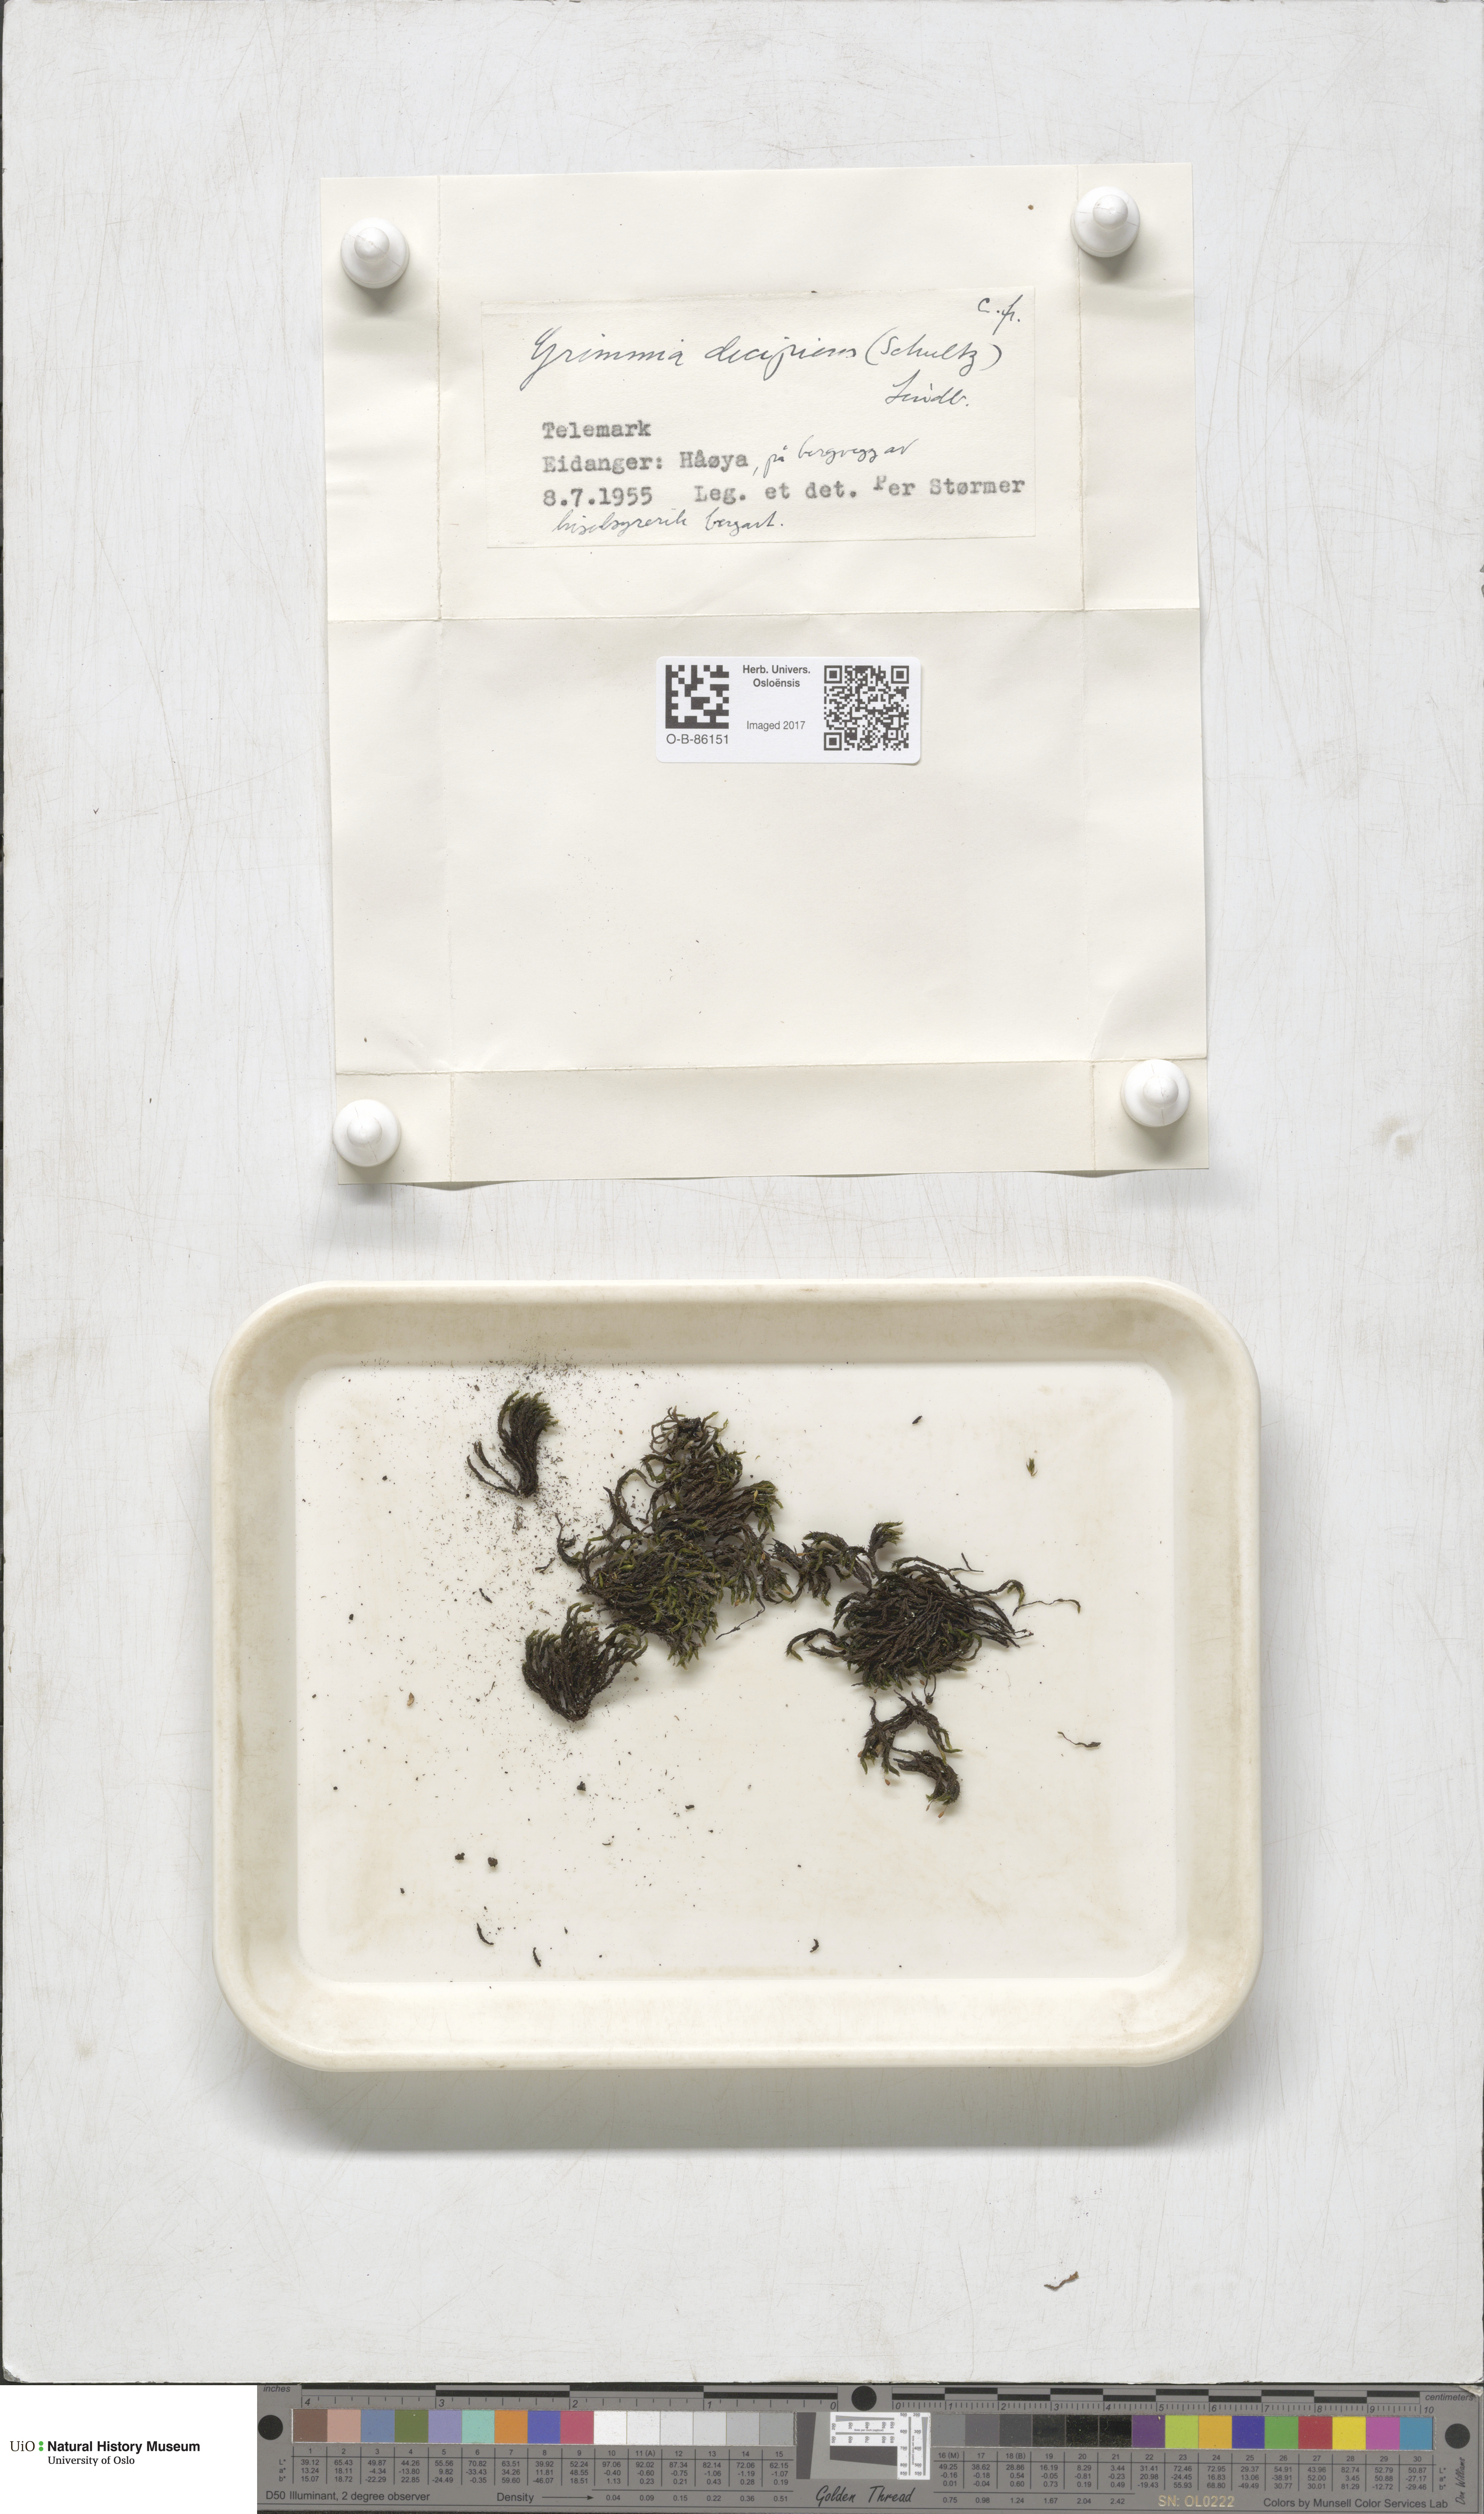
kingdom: Plantae
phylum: Bryophyta
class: Bryopsida
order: Grimmiales
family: Grimmiaceae
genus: Grimmia
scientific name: Grimmia decipiens
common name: Great grimmia
